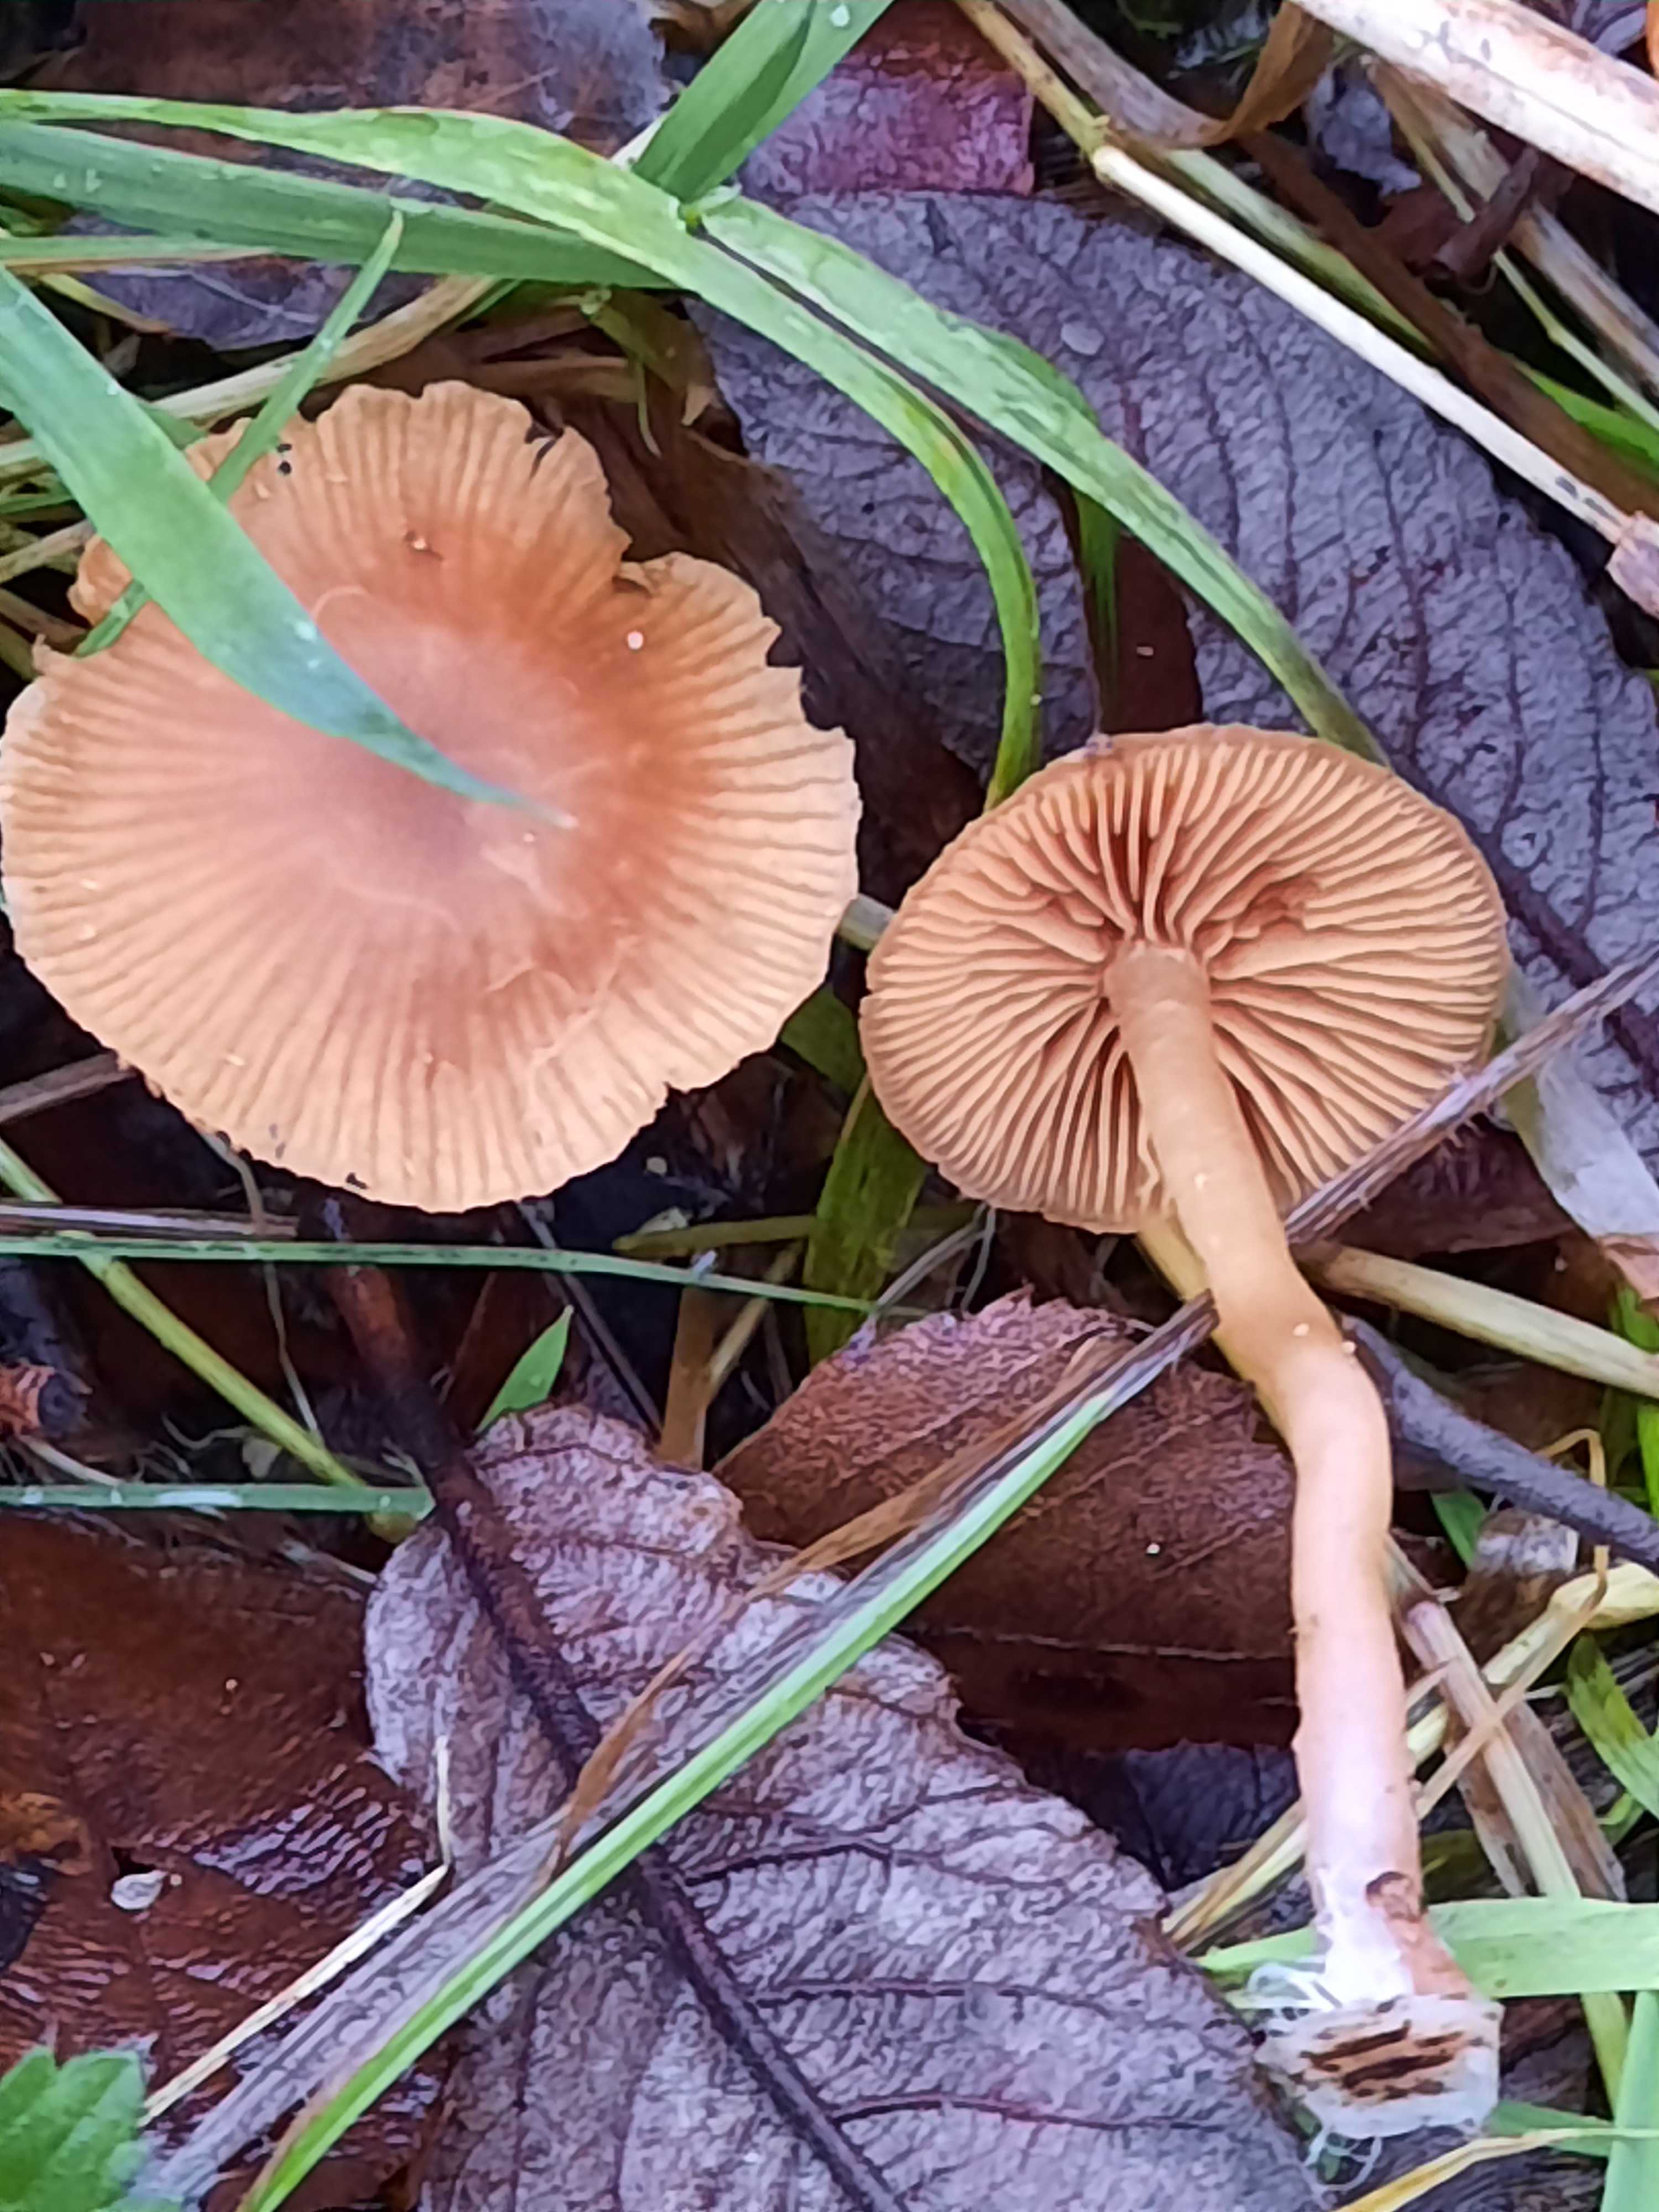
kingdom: Fungi
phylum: Basidiomycota
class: Agaricomycetes
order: Agaricales
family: Tubariaceae
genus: Tubaria
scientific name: Tubaria furfuracea
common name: kliddet fnughat
